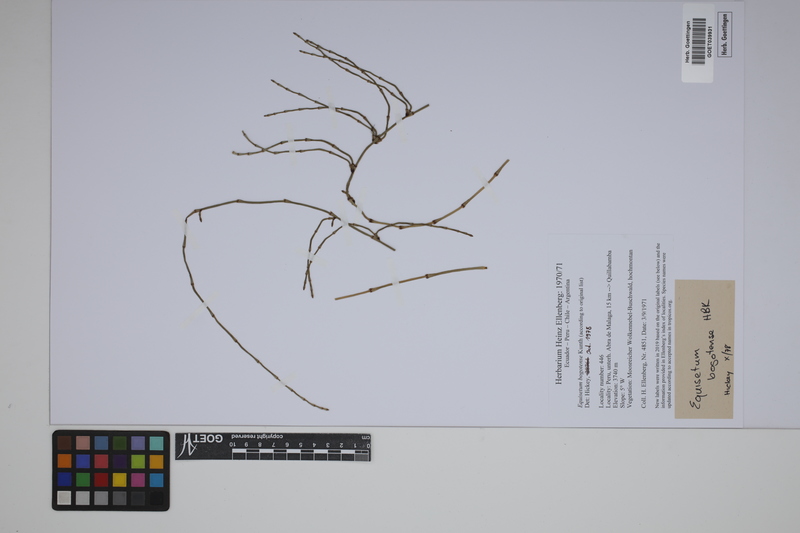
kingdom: Plantae
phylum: Tracheophyta
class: Polypodiopsida
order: Equisetales
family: Equisetaceae
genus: Equisetum
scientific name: Equisetum bogotense
